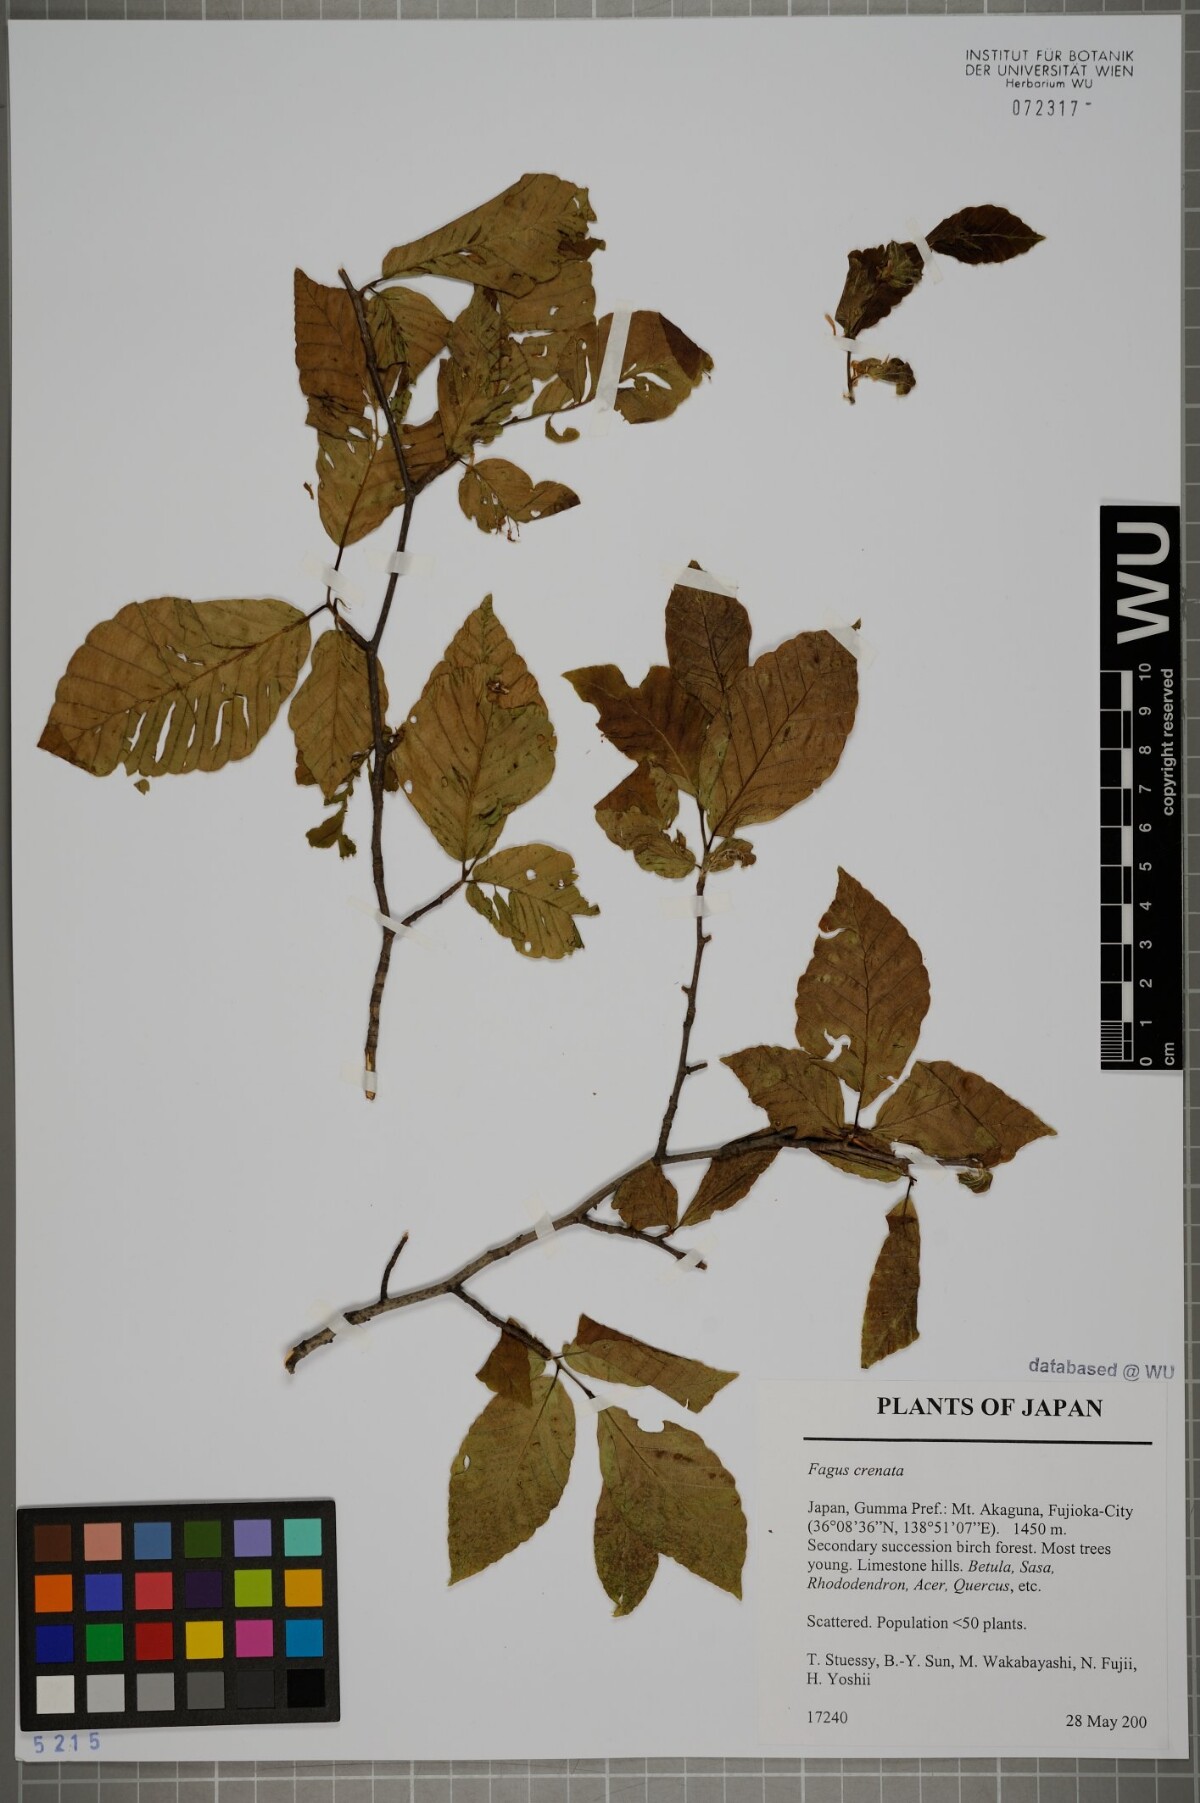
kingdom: Plantae
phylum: Tracheophyta
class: Magnoliopsida
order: Fagales
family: Fagaceae
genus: Fagus
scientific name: Fagus crenata
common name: Japanese beech
